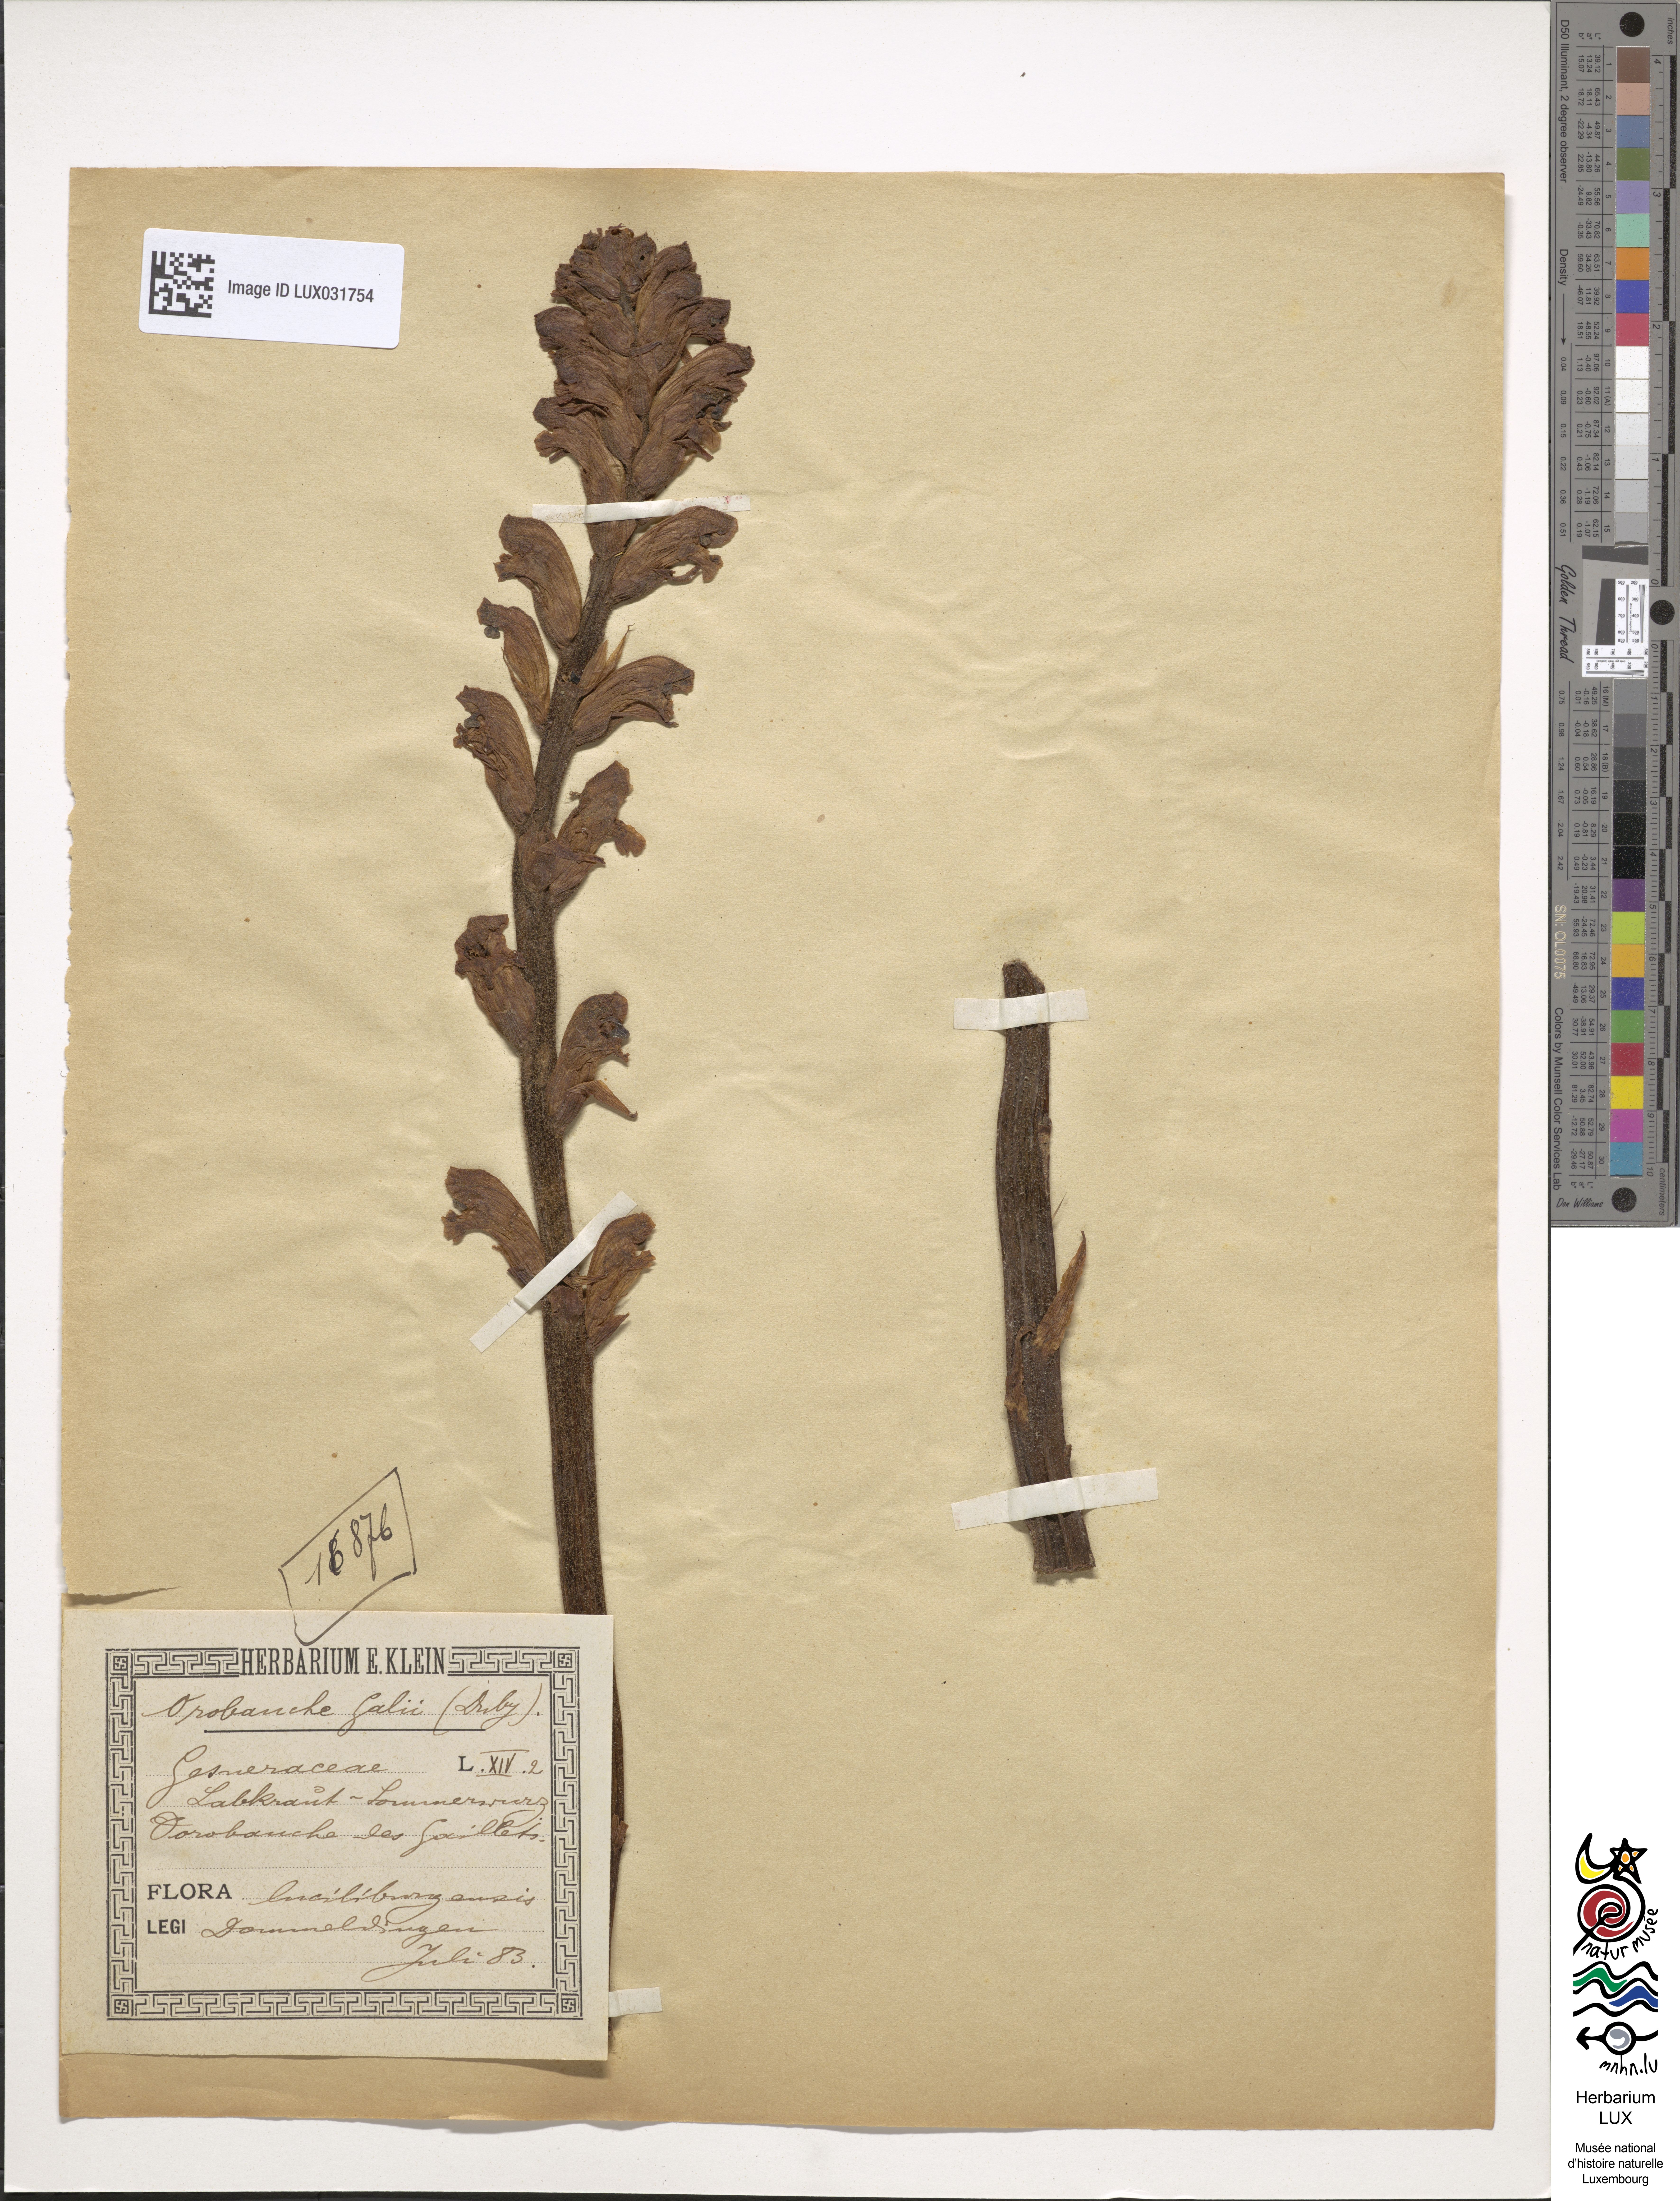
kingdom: Plantae
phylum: Tracheophyta
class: Magnoliopsida
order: Lamiales
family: Orobanchaceae
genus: Orobanche
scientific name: Orobanche caryophyllacea
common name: Bedstraw broomrape
